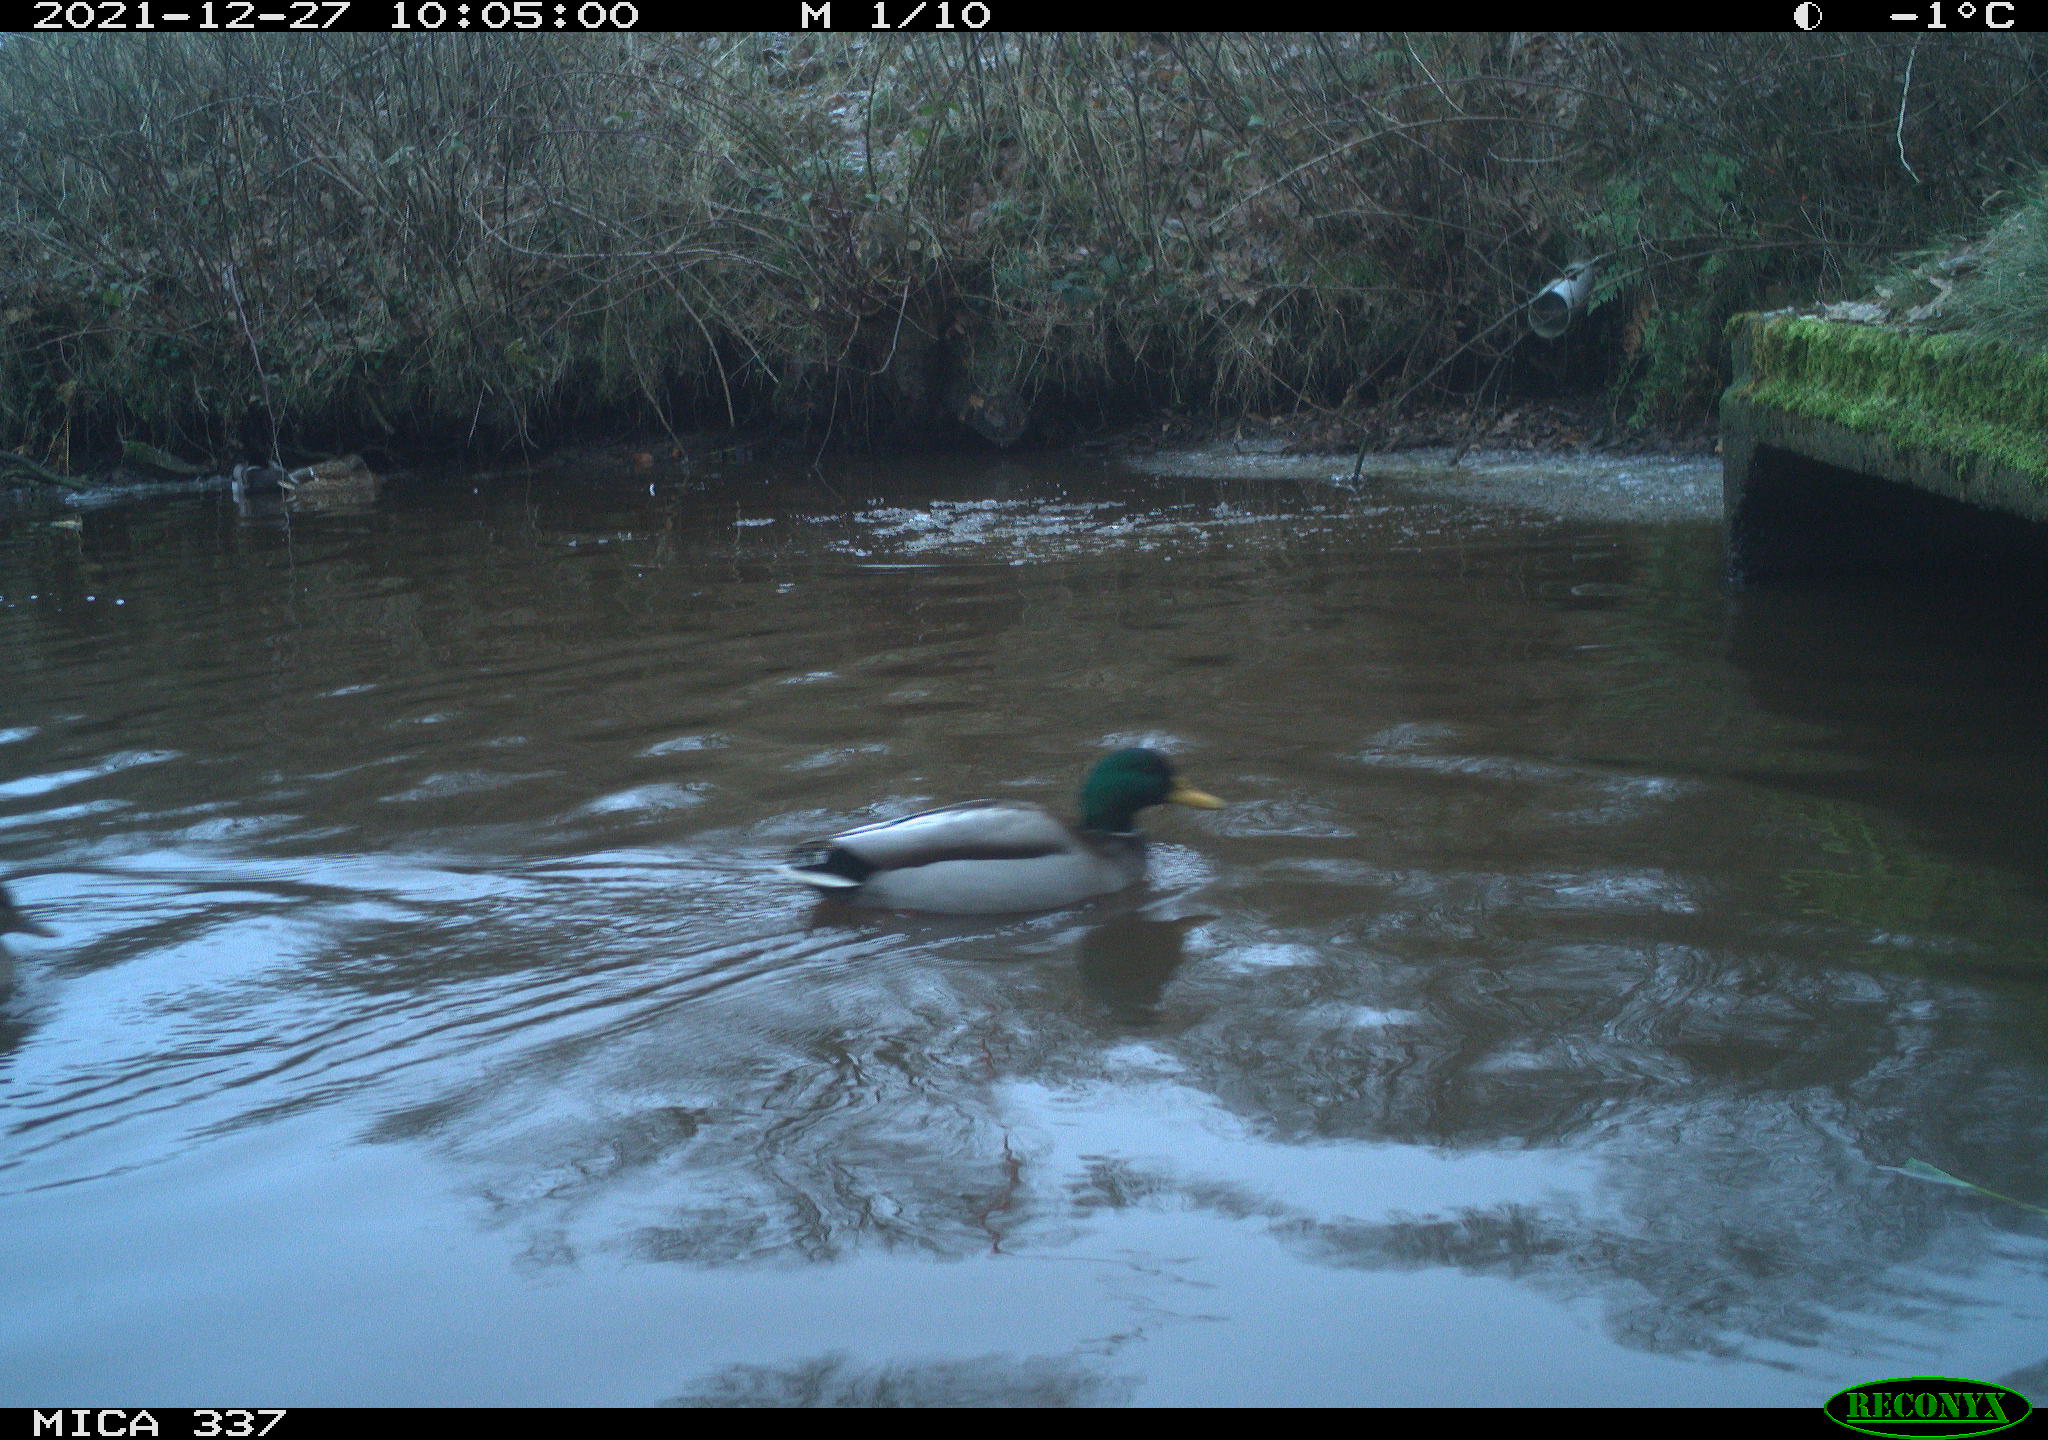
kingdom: Animalia
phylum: Chordata
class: Aves
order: Anseriformes
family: Anatidae
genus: Anas
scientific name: Anas platyrhynchos
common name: Mallard
